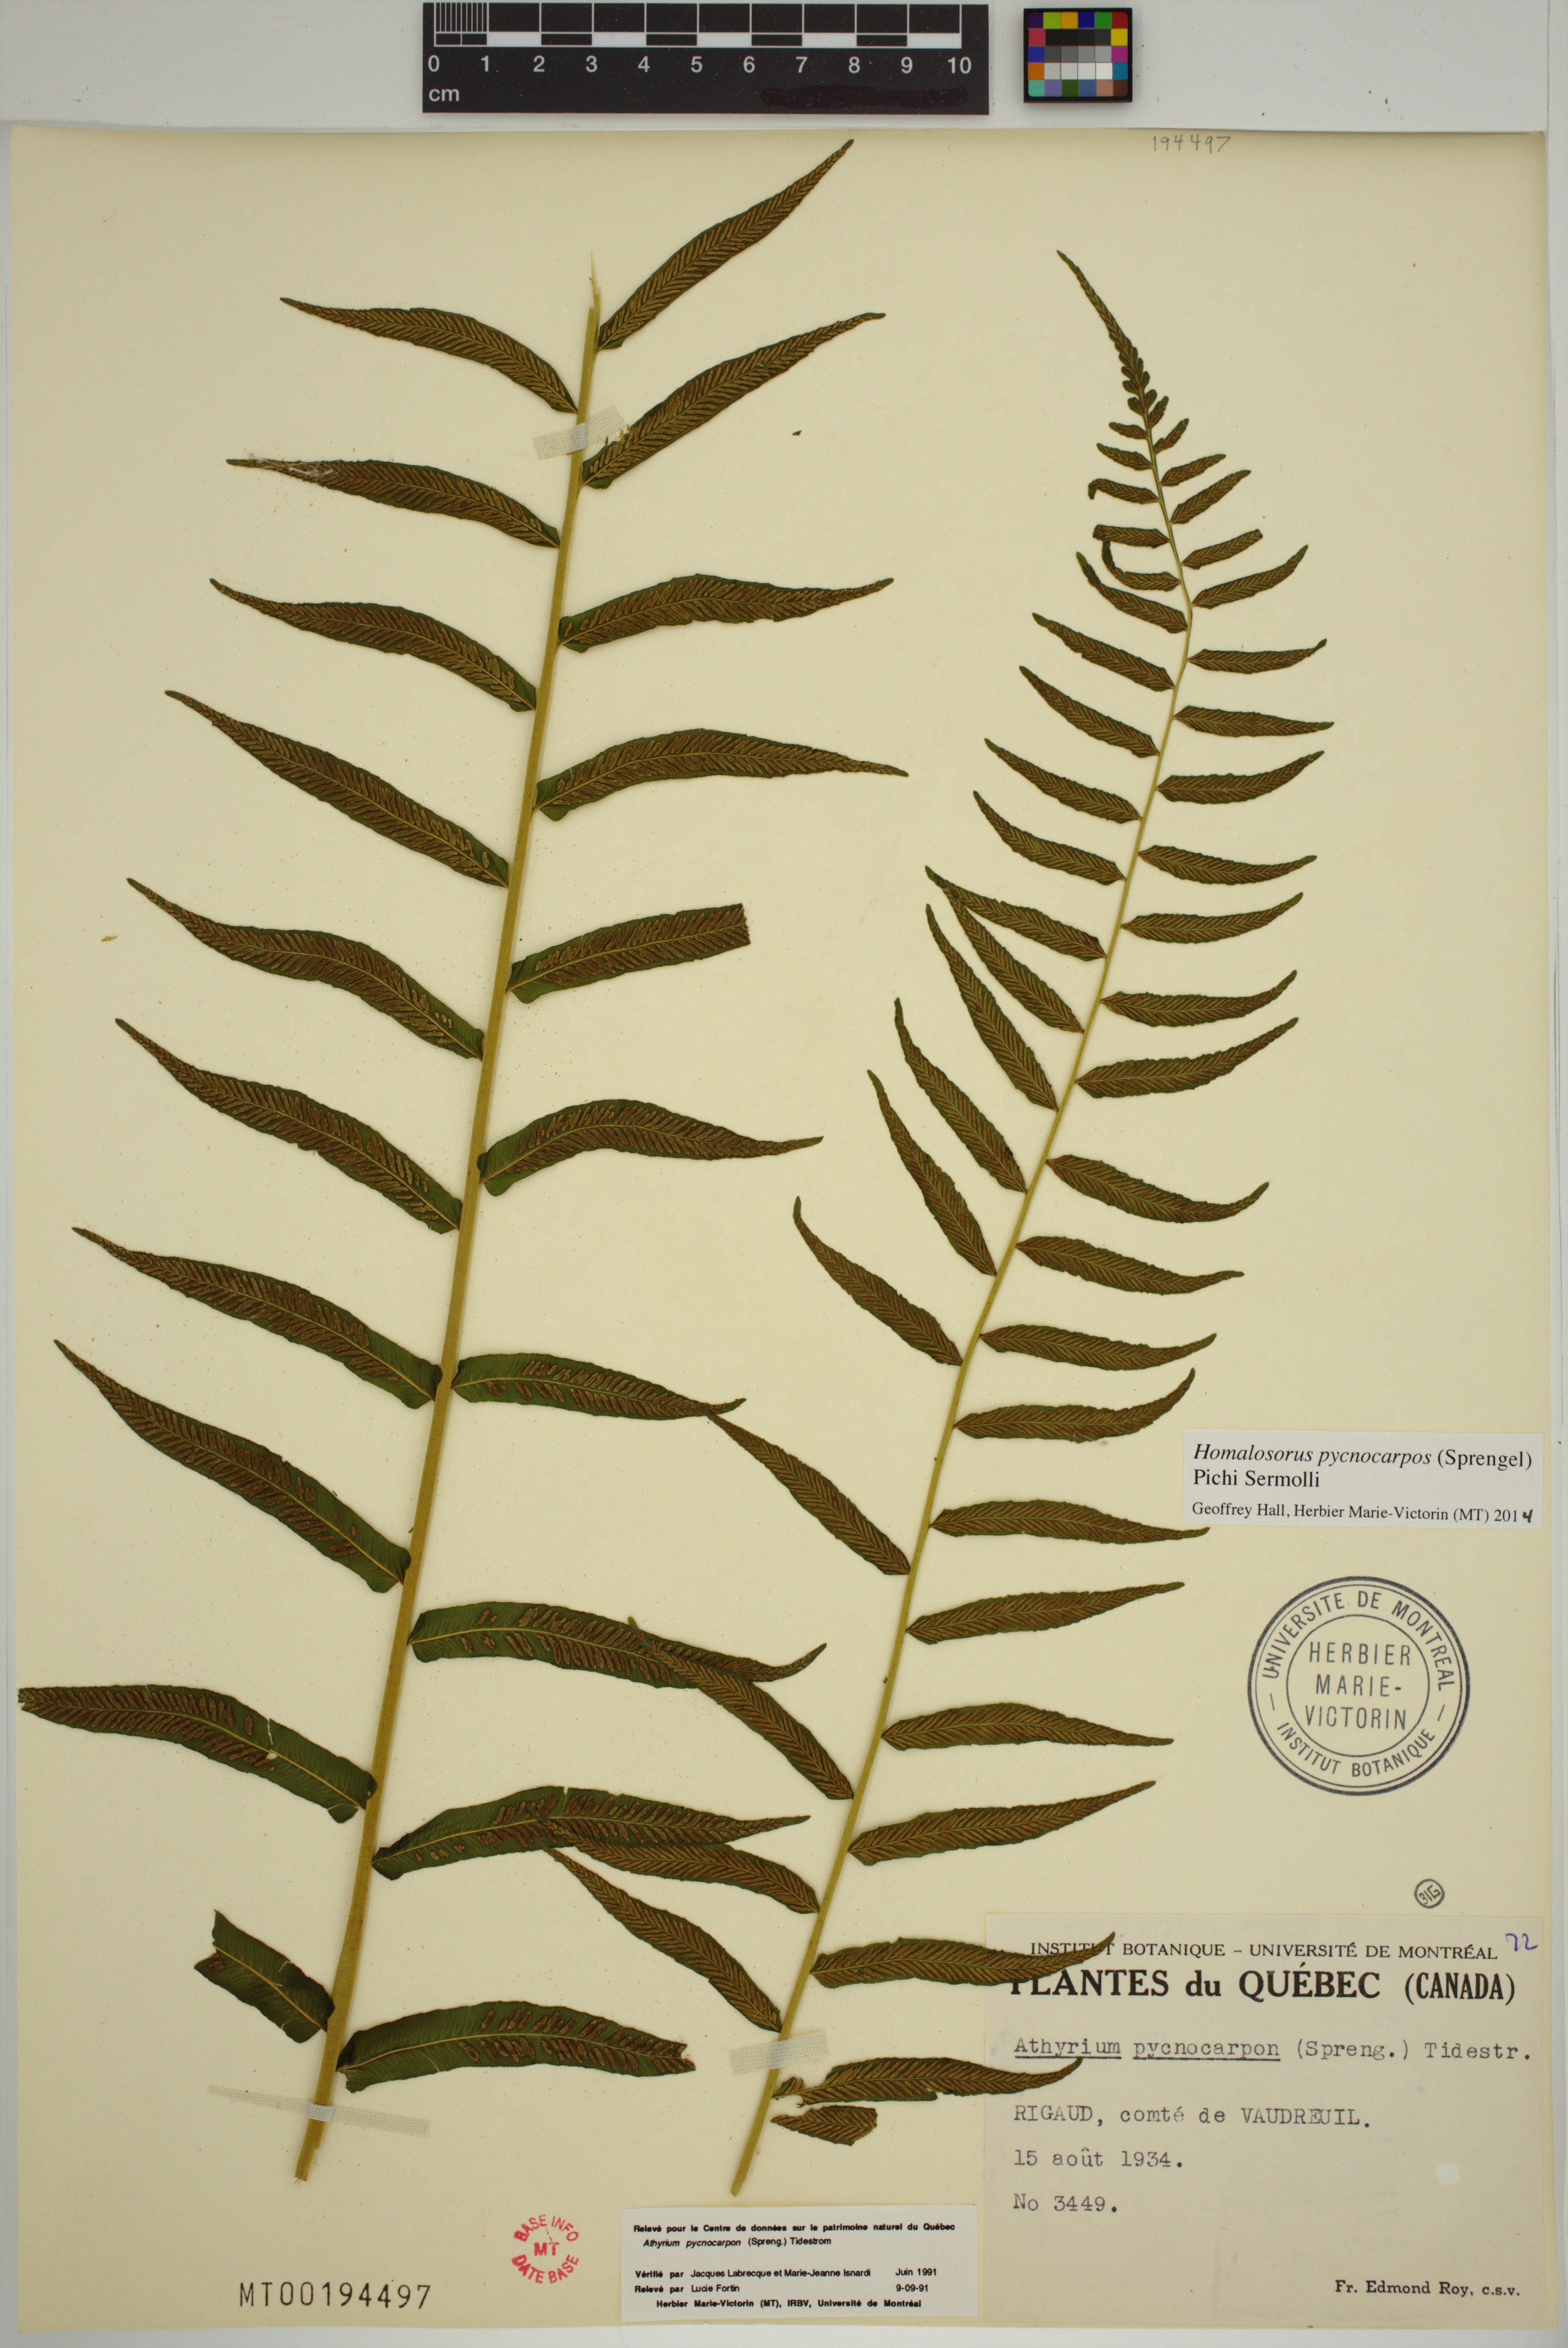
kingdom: Plantae
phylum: Tracheophyta
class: Polypodiopsida
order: Polypodiales
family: Diplaziopsidaceae
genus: Homalosorus
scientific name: Homalosorus pycnocarpos
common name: Glade fern
